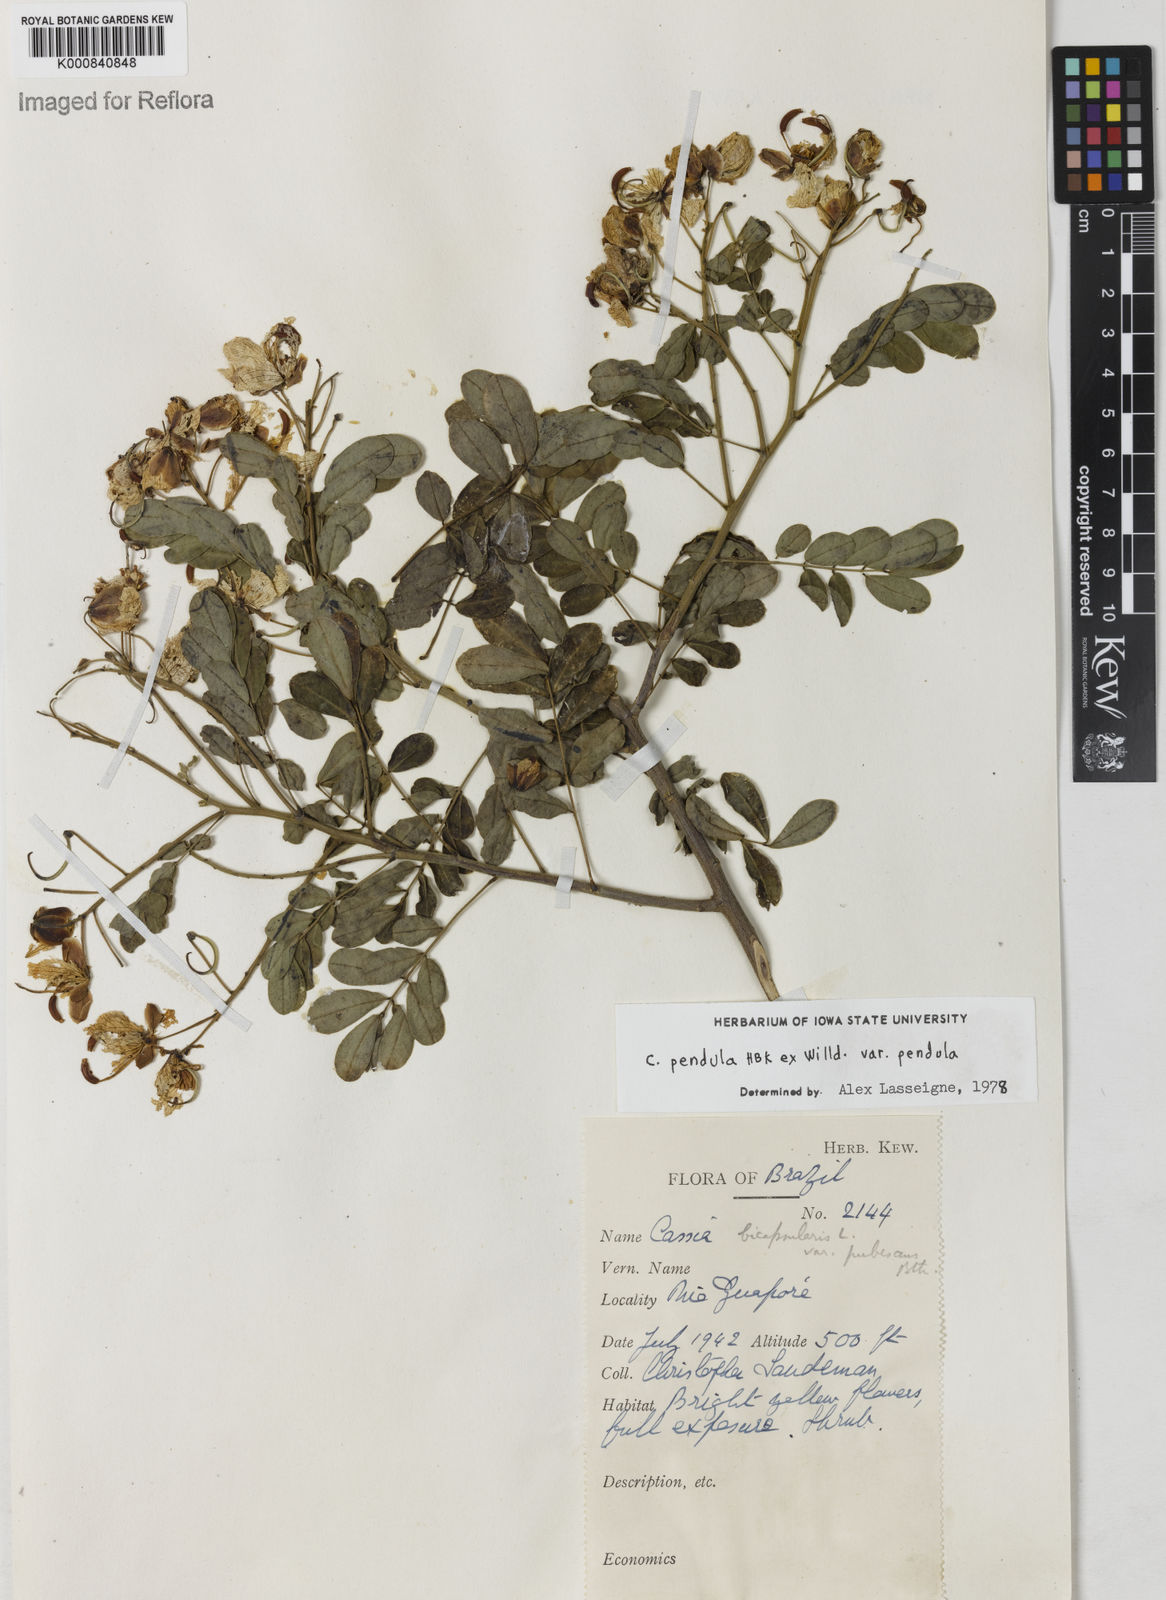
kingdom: Plantae
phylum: Tracheophyta
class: Magnoliopsida
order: Fabales
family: Fabaceae
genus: Senna
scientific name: Senna pendula
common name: Easter cassia
